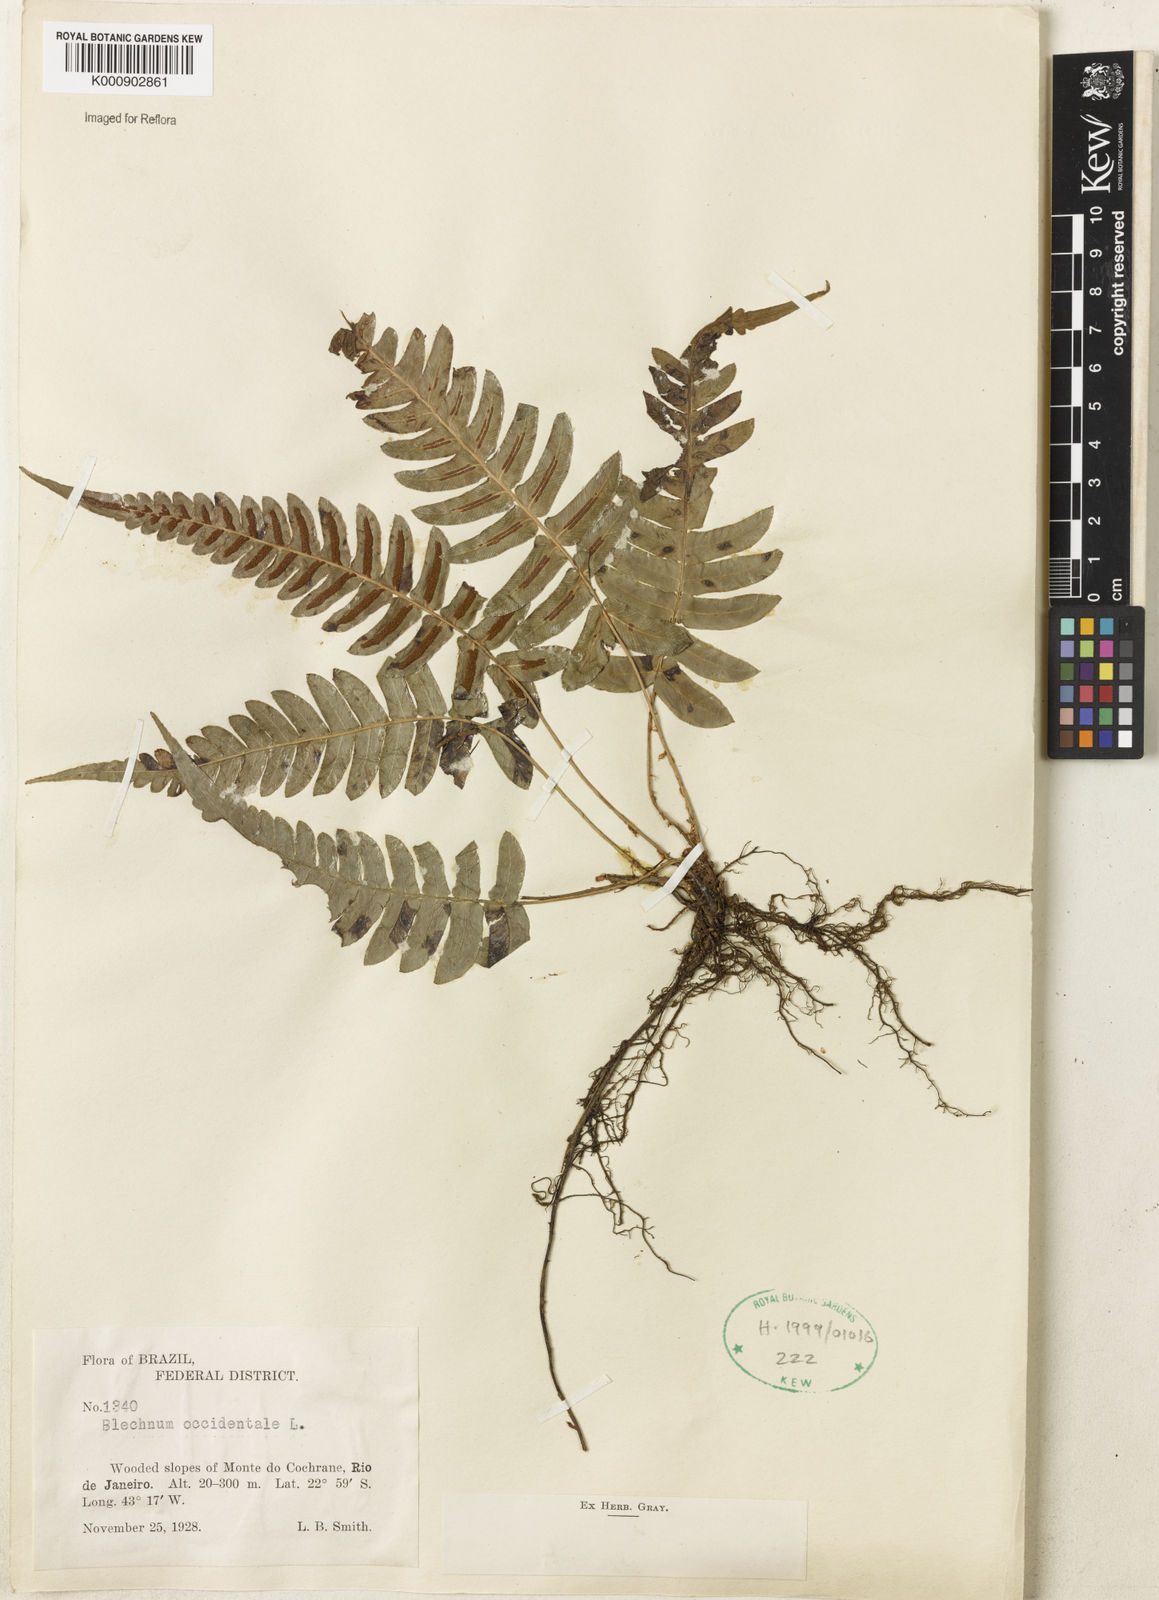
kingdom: Plantae
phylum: Tracheophyta
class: Polypodiopsida
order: Polypodiales
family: Blechnaceae
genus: Blechnum
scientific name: Blechnum occidentale
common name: Hammock fern
